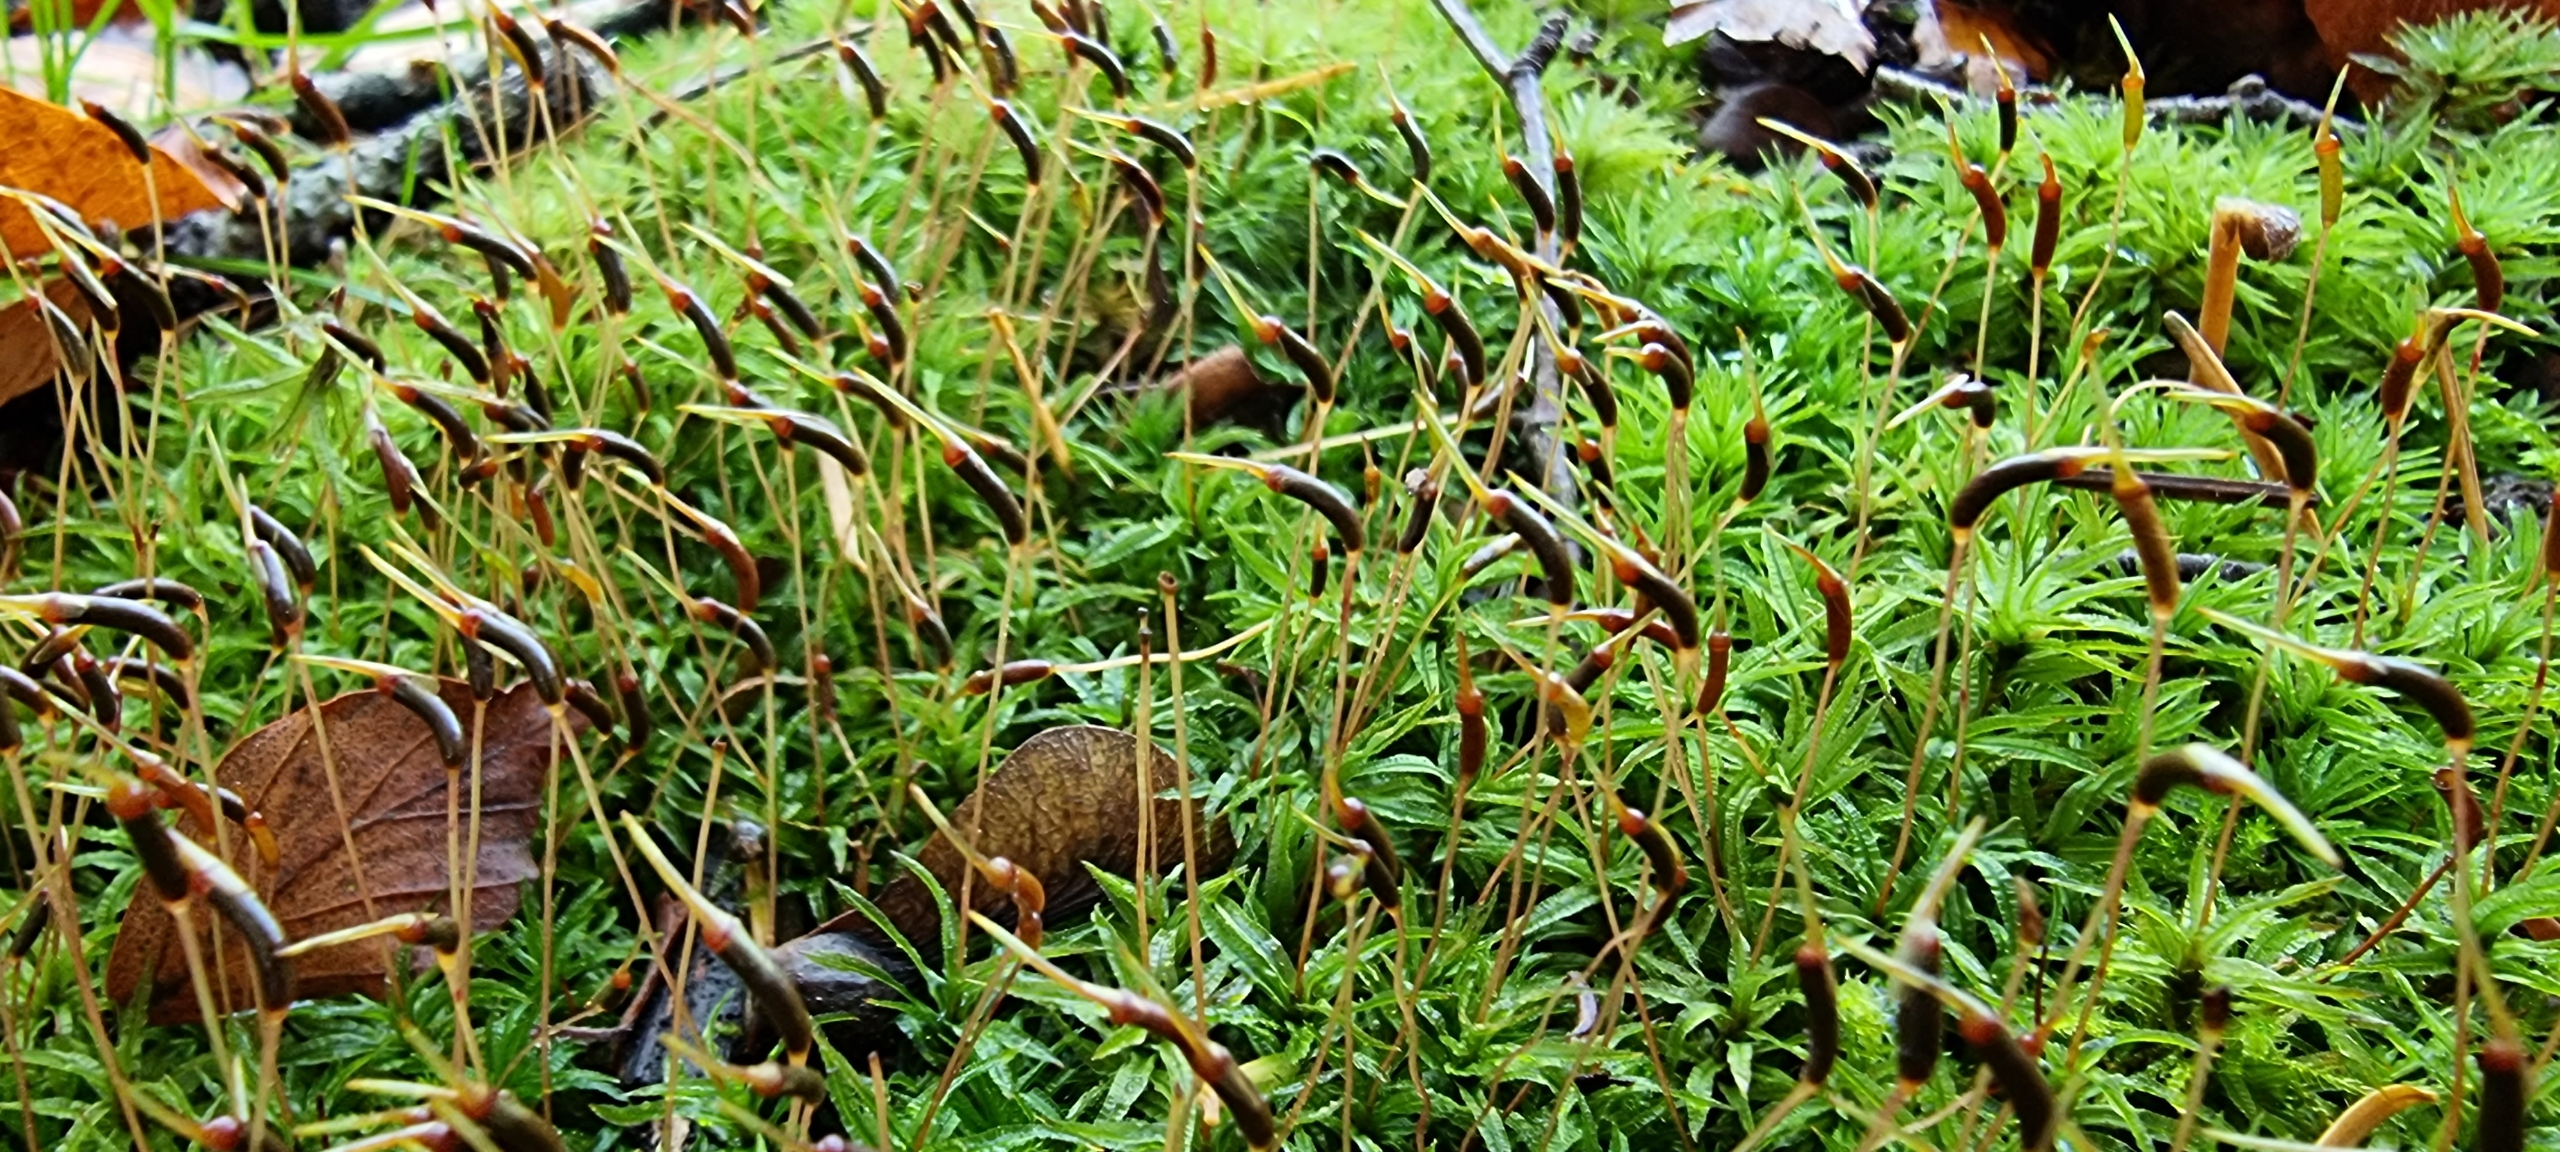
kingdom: Plantae
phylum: Bryophyta
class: Polytrichopsida
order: Polytrichales
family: Polytrichaceae
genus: Atrichum
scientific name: Atrichum undulatum
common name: Bølget katrinemos
